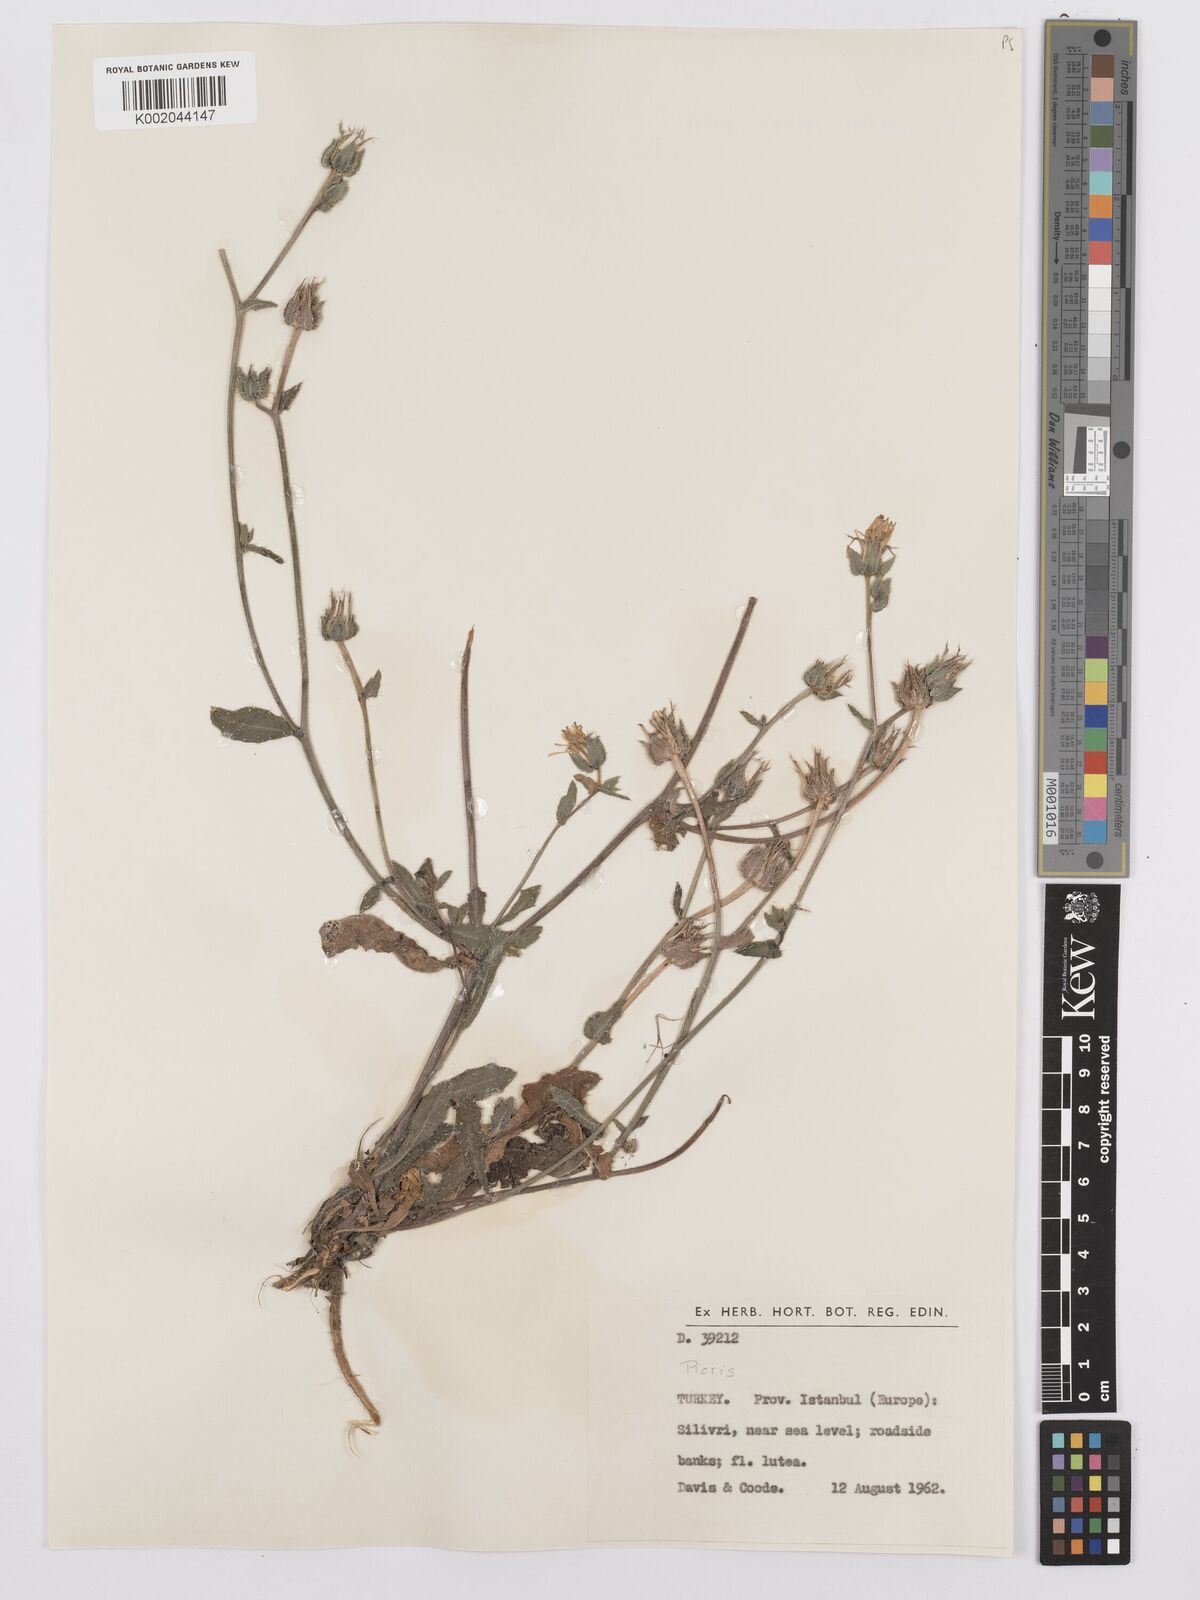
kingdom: Plantae
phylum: Tracheophyta
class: Magnoliopsida
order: Asterales
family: Asteraceae
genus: Picris
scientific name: Picris
